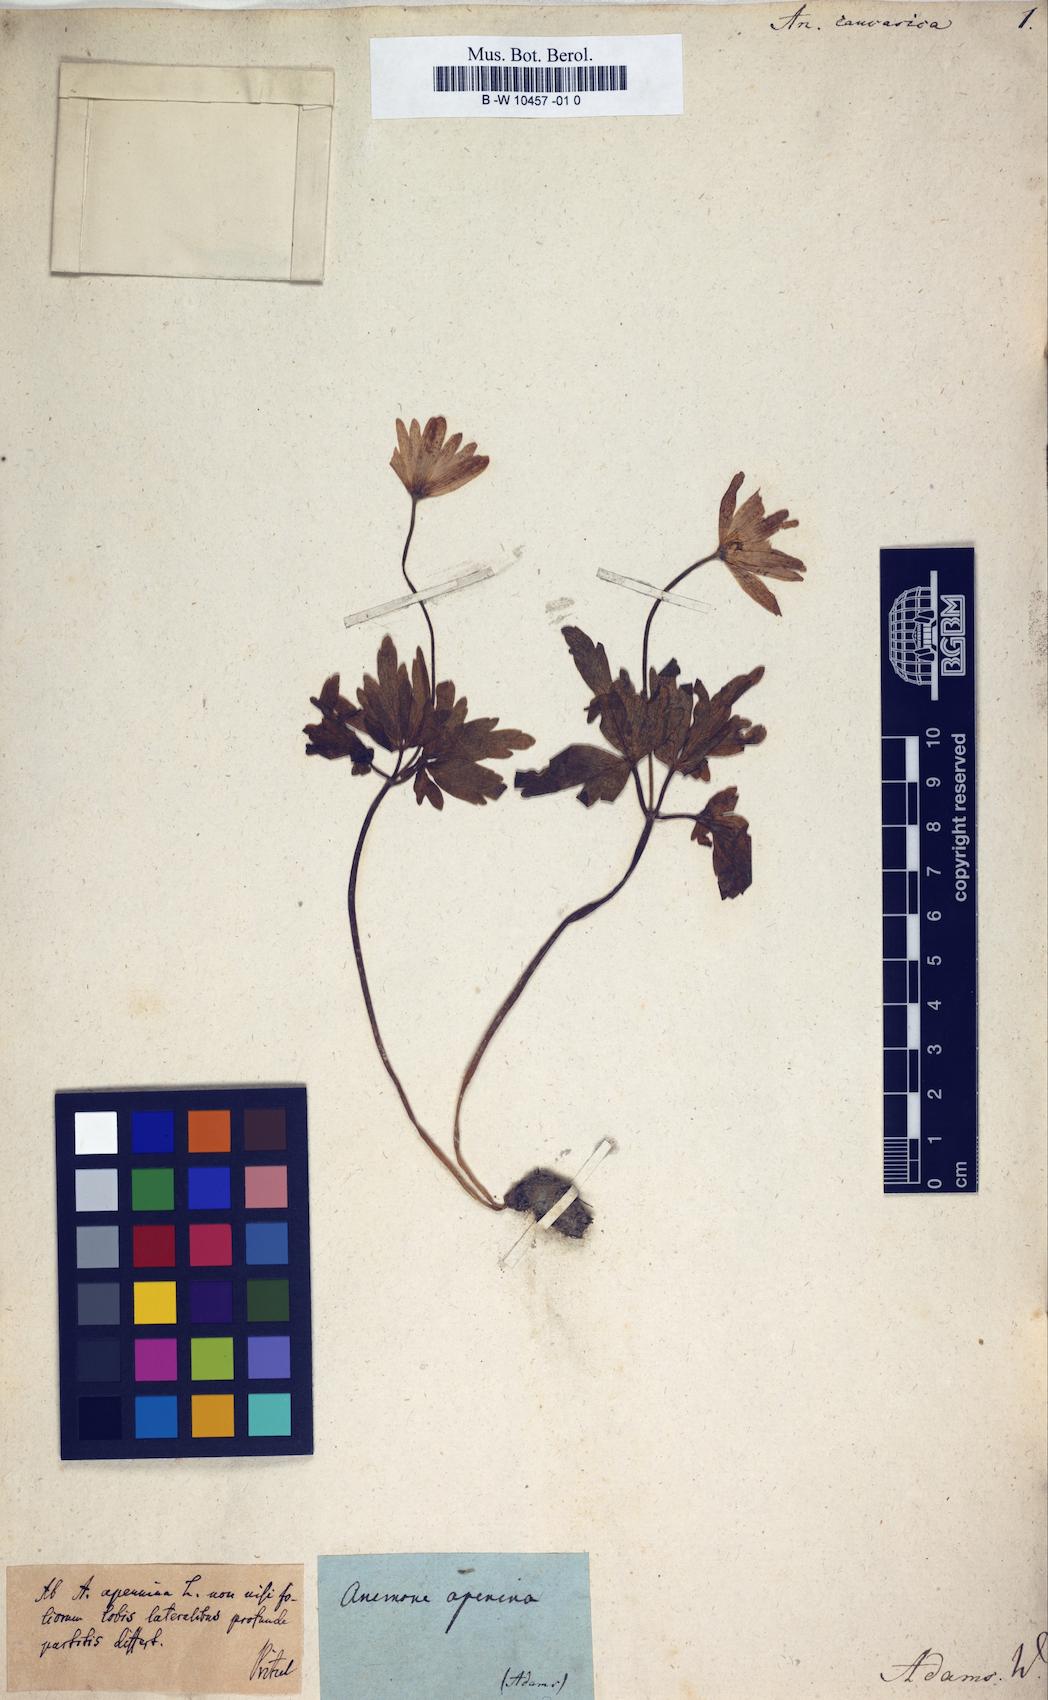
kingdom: Plantae
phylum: Tracheophyta
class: Magnoliopsida
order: Ranunculales
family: Ranunculaceae
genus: Anemone
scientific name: Anemone caucasica
